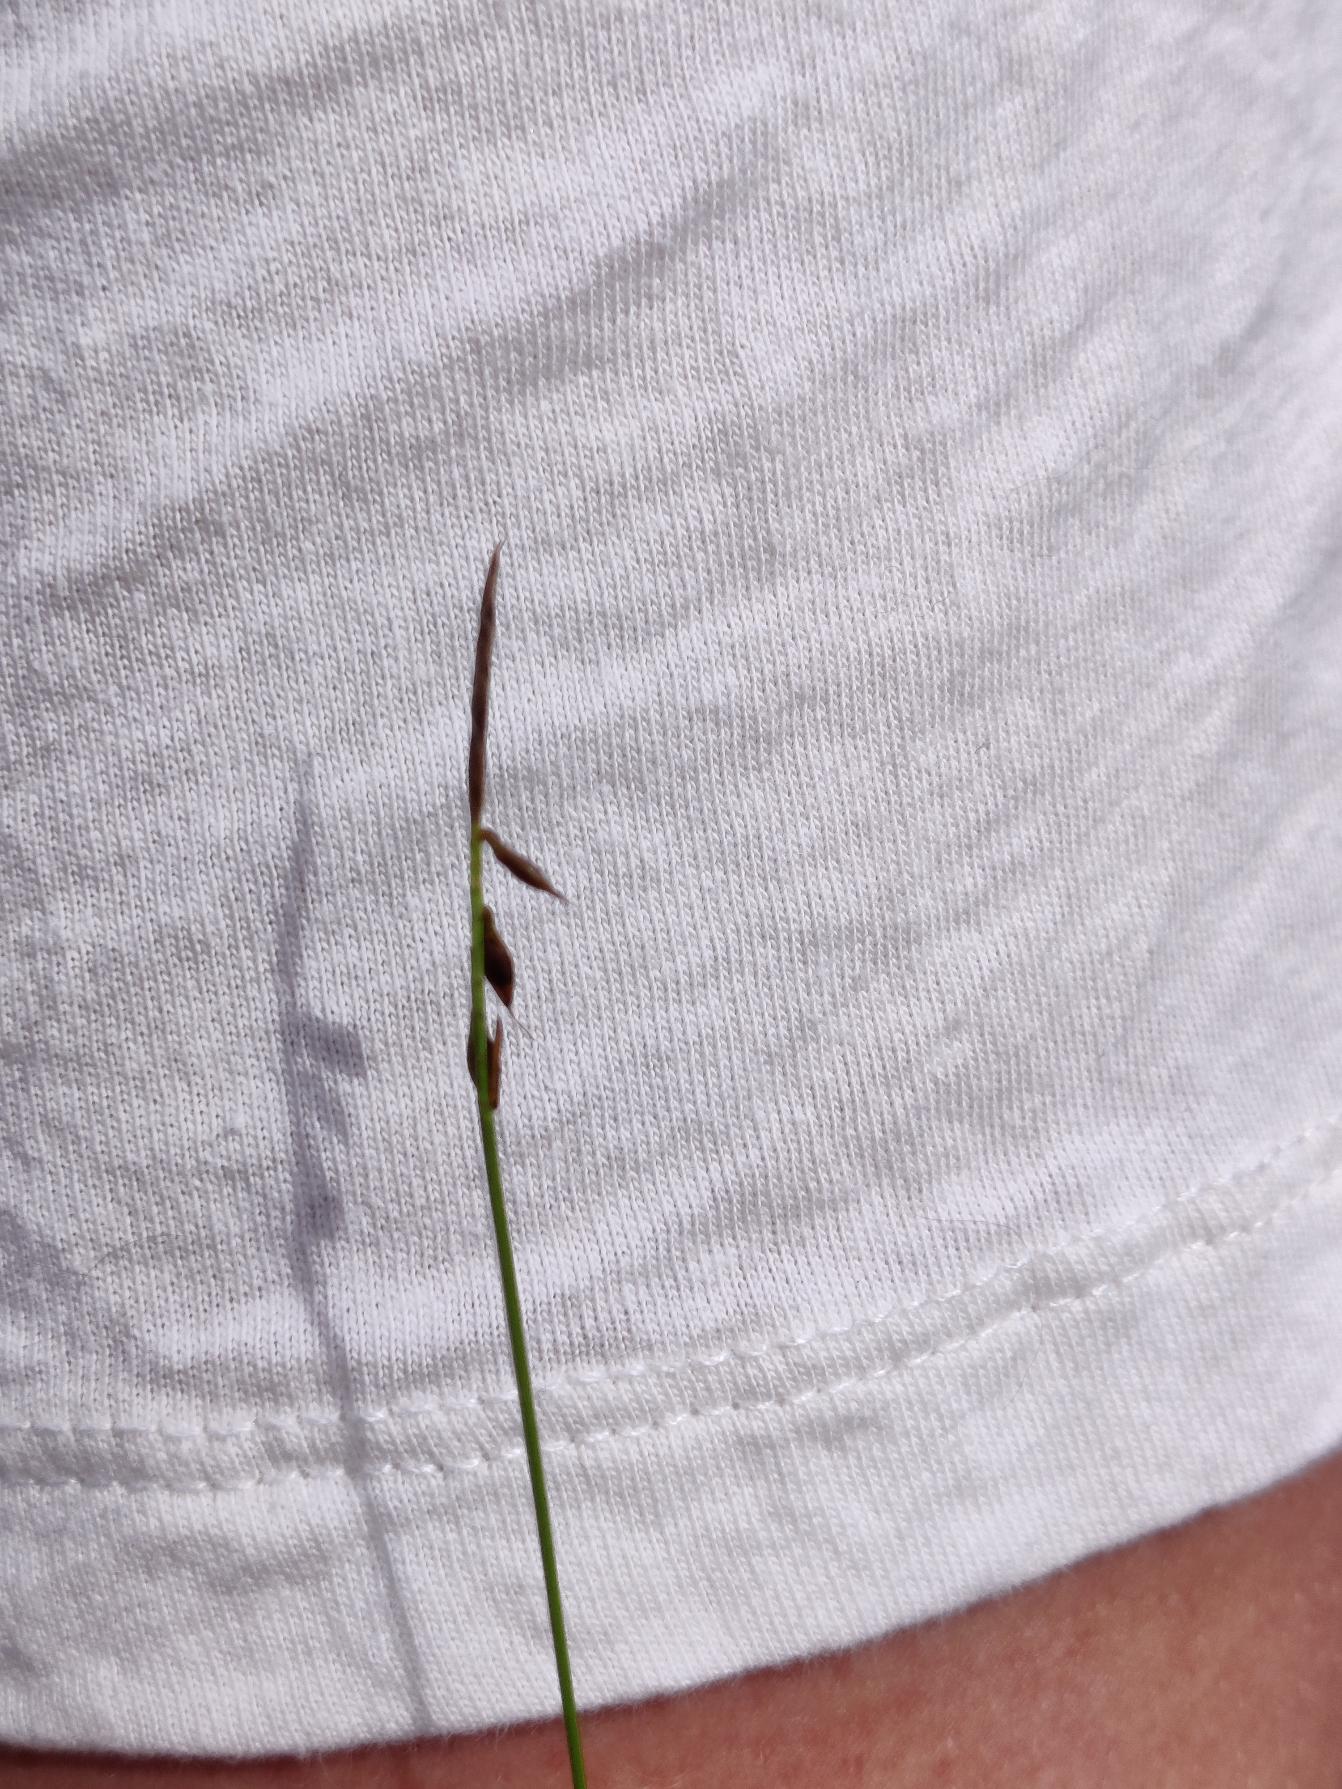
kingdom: Plantae
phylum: Tracheophyta
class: Liliopsida
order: Poales
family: Cyperaceae
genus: Carex
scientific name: Carex pulicaris
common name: Loppe-star
